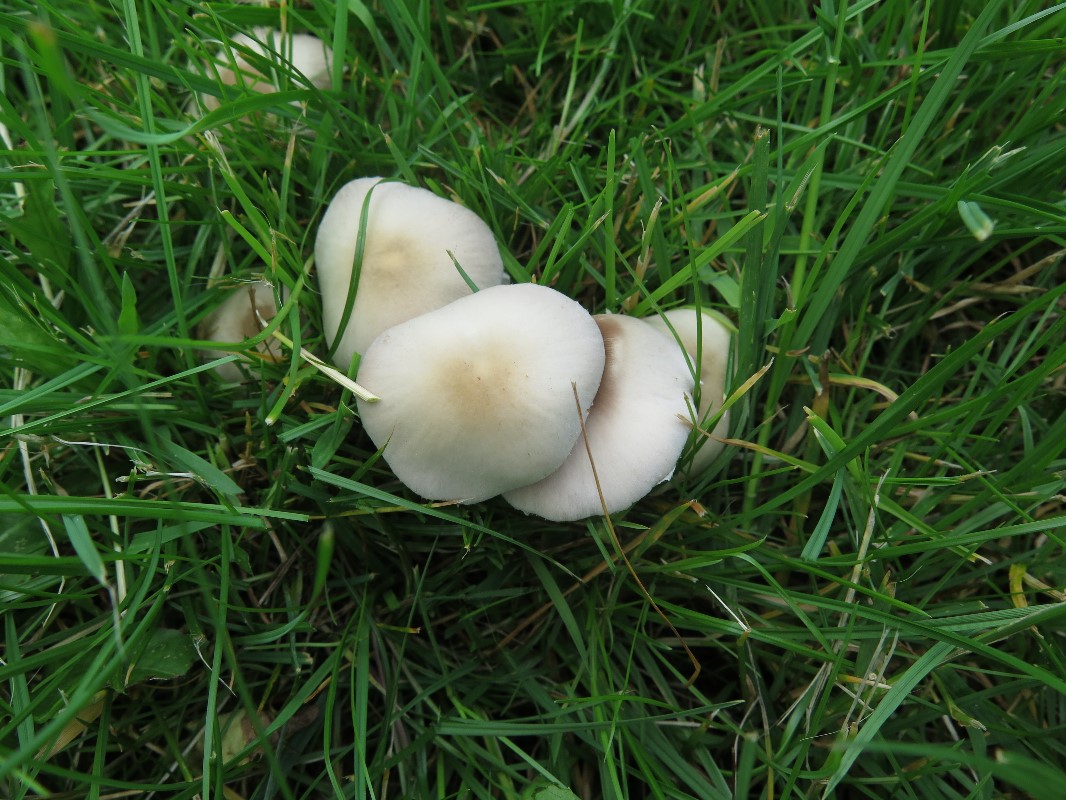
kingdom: Fungi
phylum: Basidiomycota
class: Agaricomycetes
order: Agaricales
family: Psathyrellaceae
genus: Candolleomyces
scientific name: Candolleomyces candolleanus
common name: Candolles mørkhat
